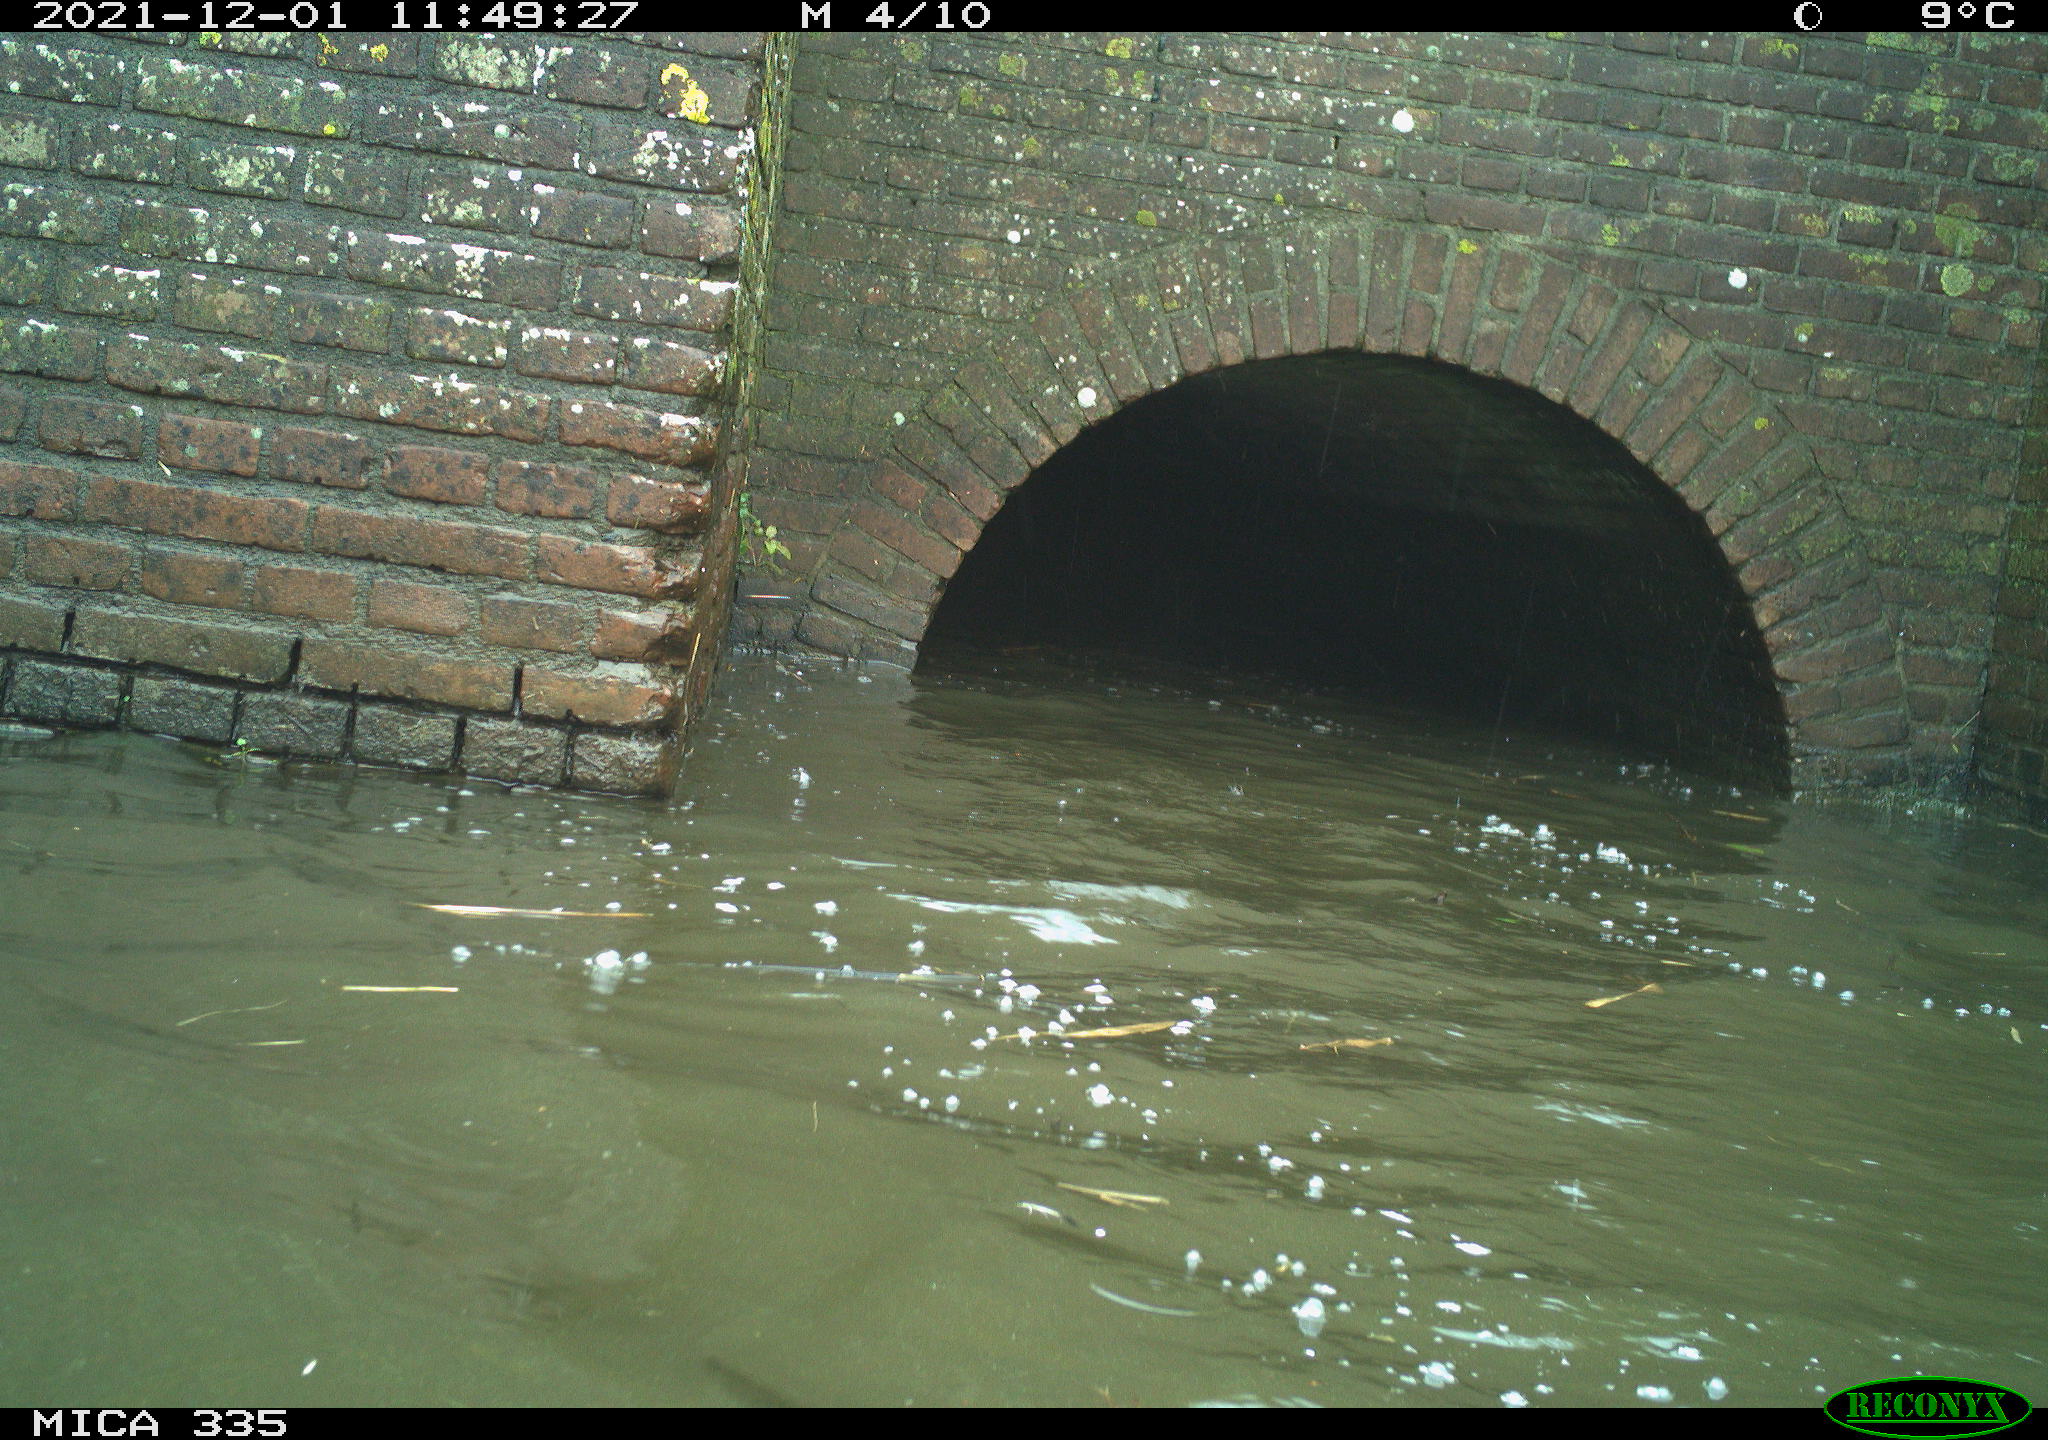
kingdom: Animalia
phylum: Chordata
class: Aves
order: Gruiformes
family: Rallidae
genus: Fulica
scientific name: Fulica atra
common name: Eurasian coot
